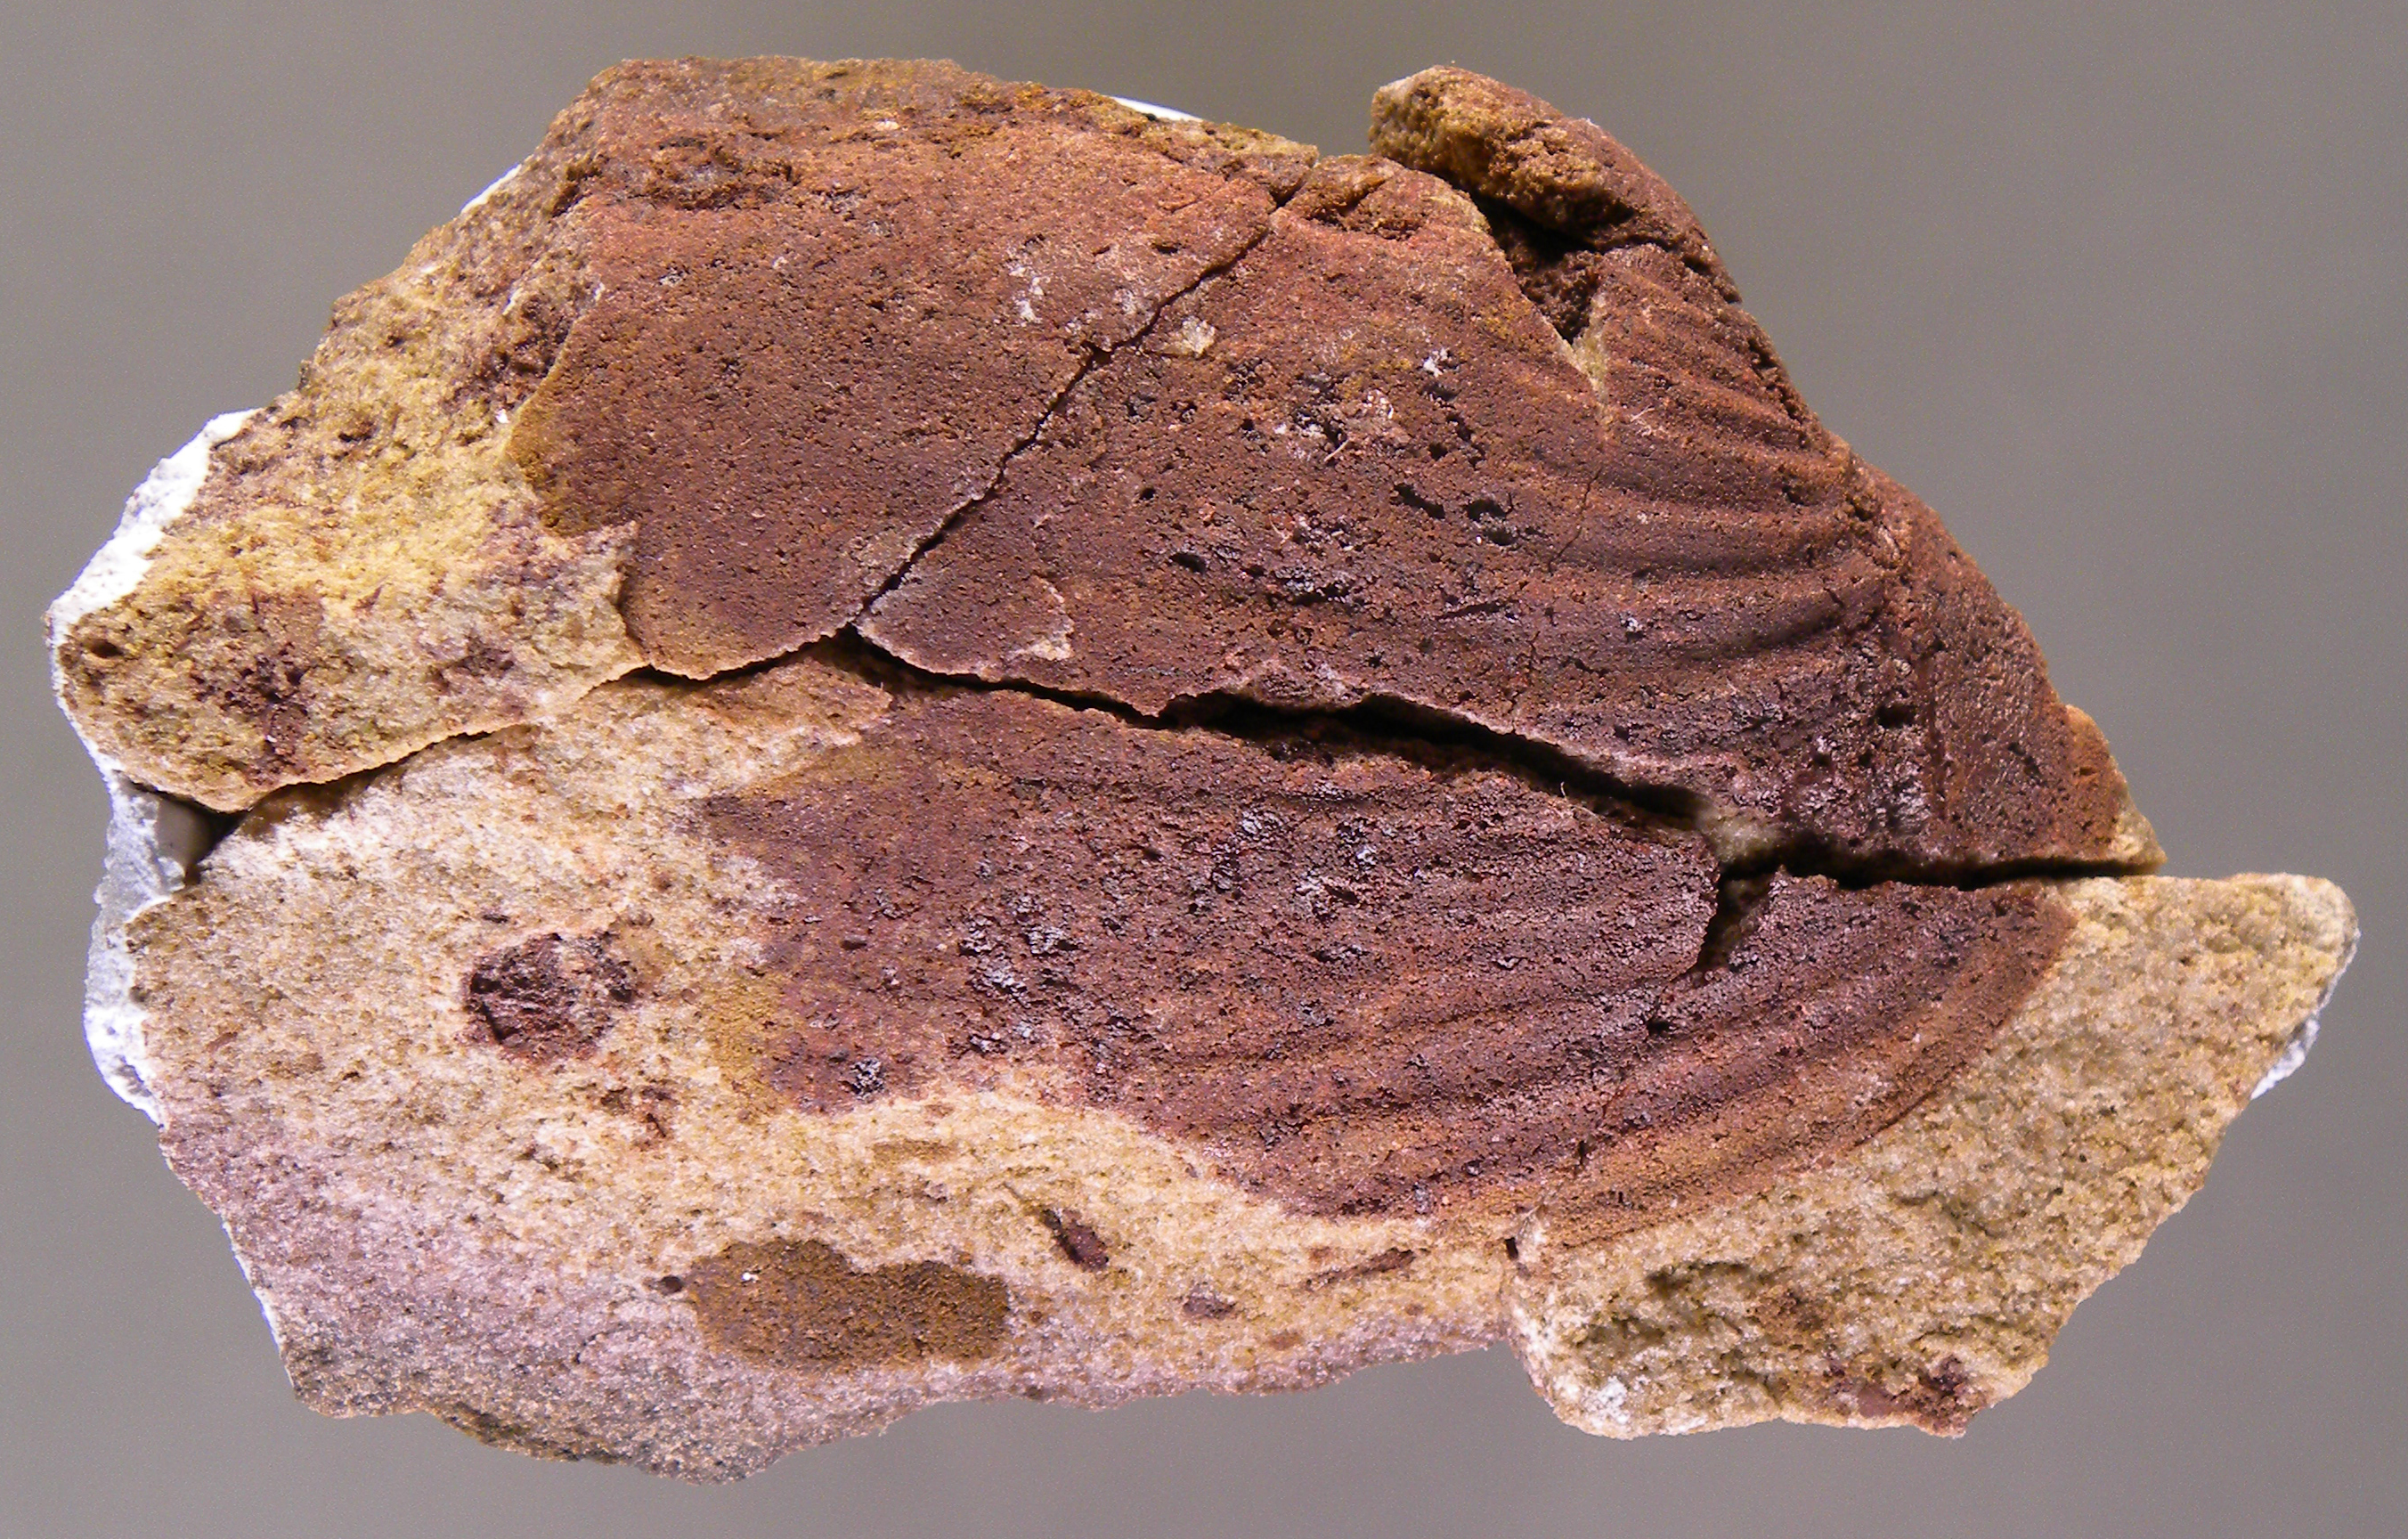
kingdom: Animalia
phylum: Mollusca
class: Bivalvia
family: Grammysiidae
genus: Grammysia
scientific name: Grammysia
